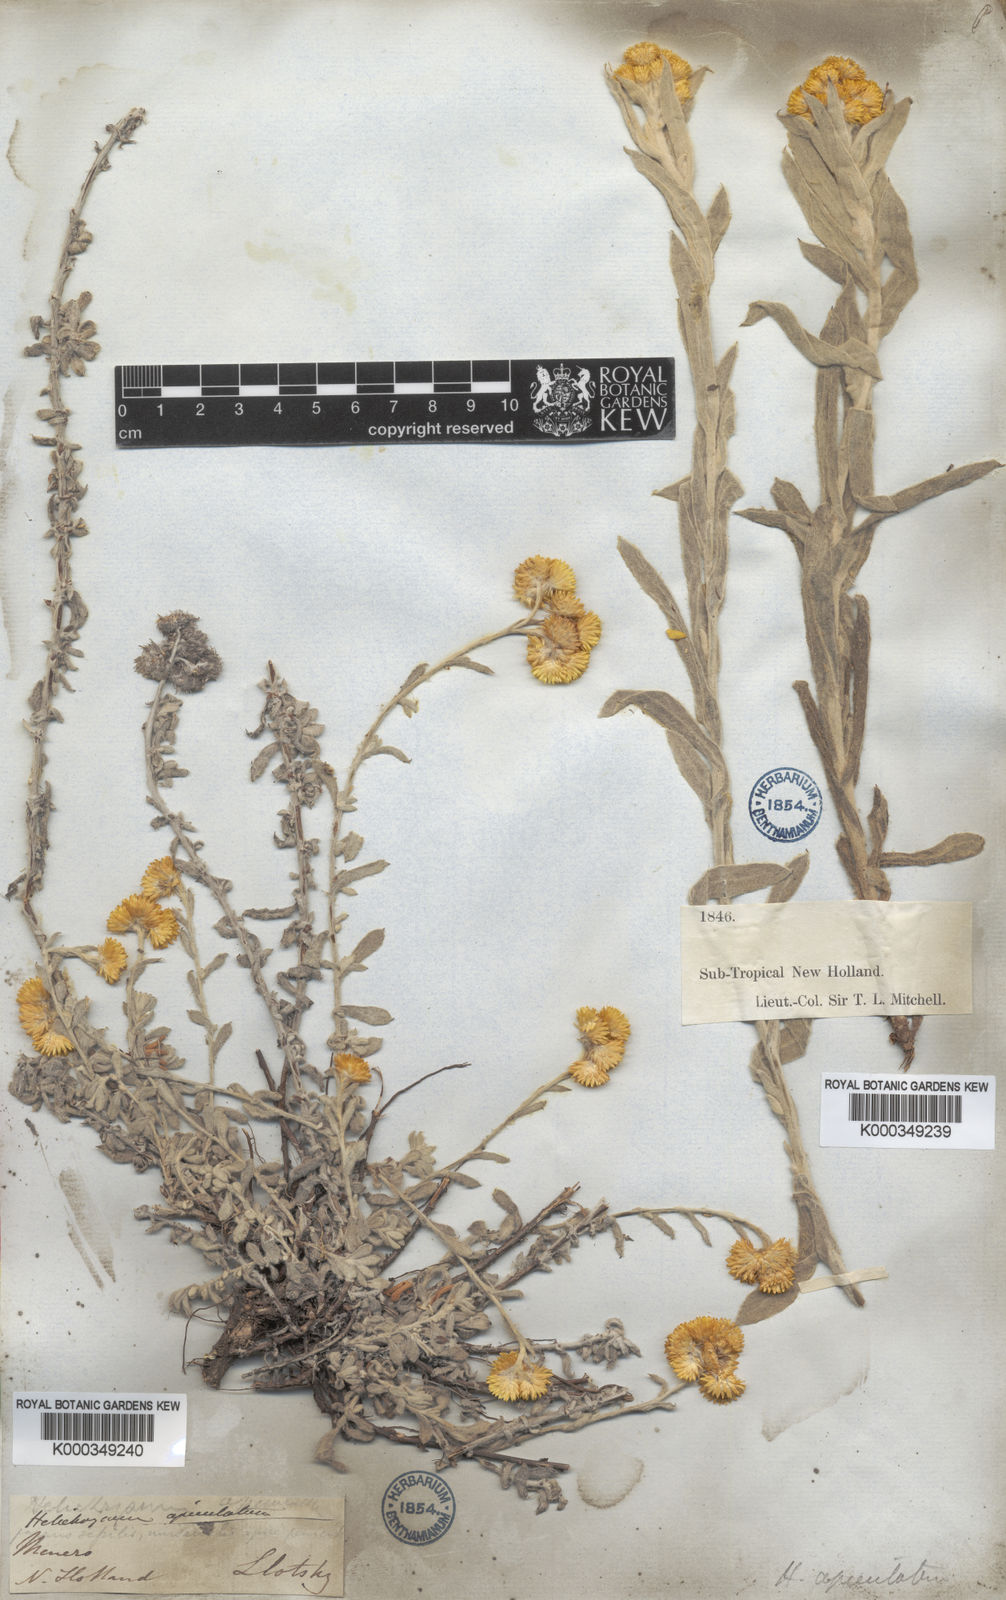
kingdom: Plantae
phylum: Tracheophyta
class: Magnoliopsida
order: Asterales
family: Asteraceae
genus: Chrysocephalum
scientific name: Chrysocephalum apiculatum
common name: Common everlasting
